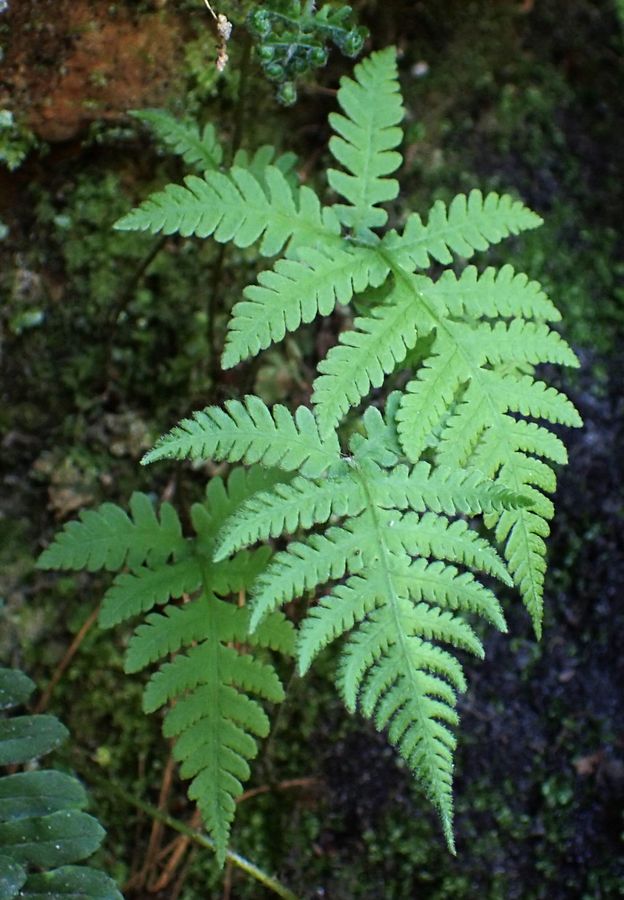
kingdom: Plantae
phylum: Tracheophyta
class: Polypodiopsida
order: Polypodiales
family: Thelypteridaceae
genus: Phegopteris
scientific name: Phegopteris connectilis
